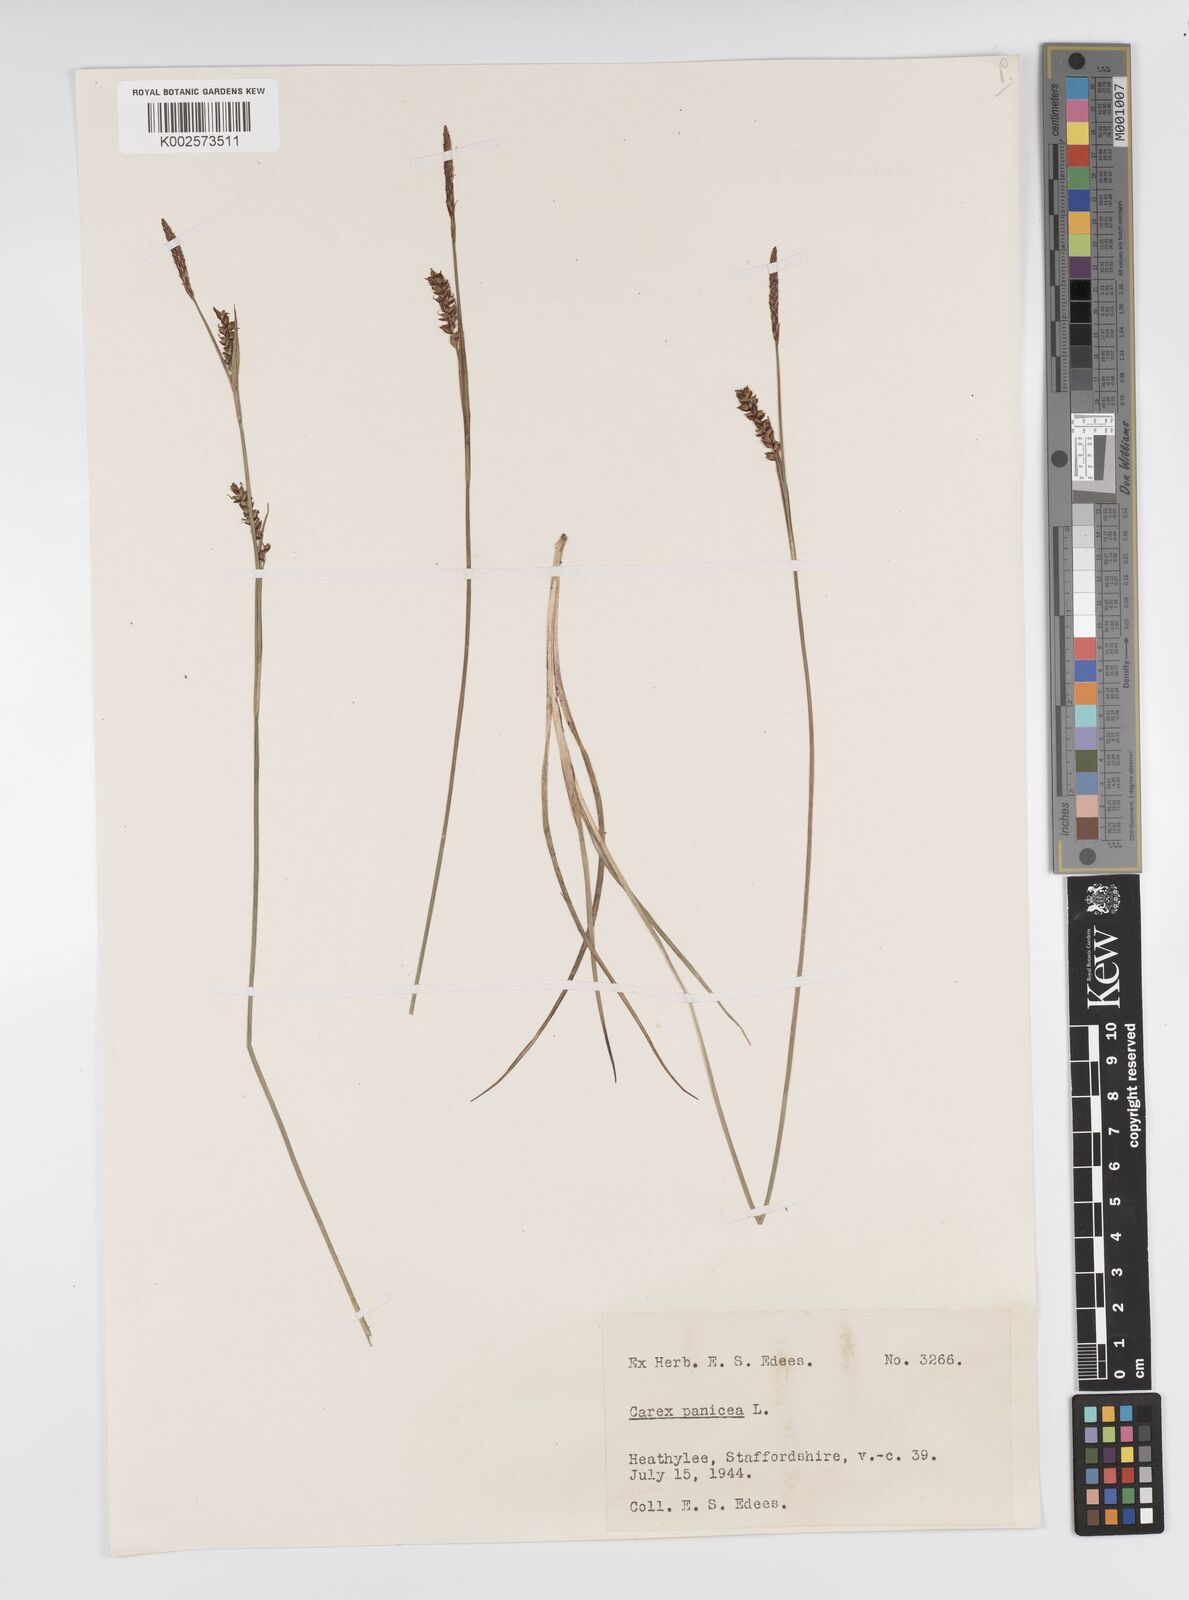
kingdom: Plantae
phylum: Tracheophyta
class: Liliopsida
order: Poales
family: Cyperaceae
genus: Carex
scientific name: Carex panicea
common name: Carnation sedge
